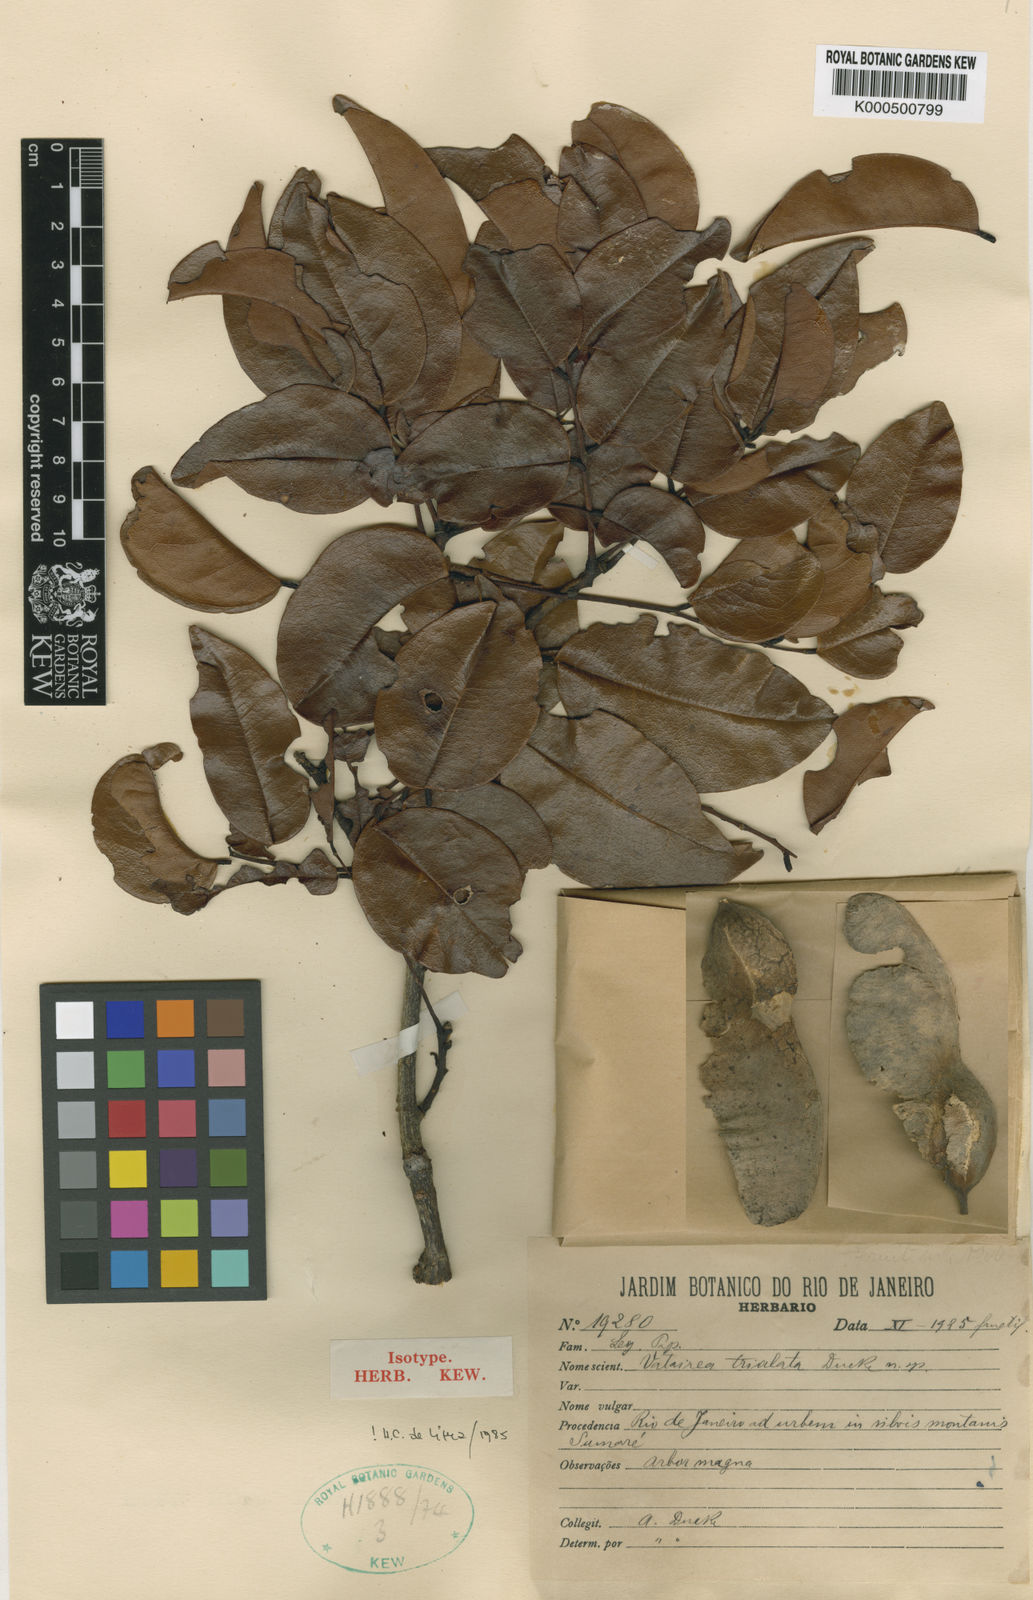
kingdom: Plantae
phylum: Tracheophyta
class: Magnoliopsida
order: Fabales
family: Fabaceae
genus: Luetzelburgia
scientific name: Luetzelburgia trialata
